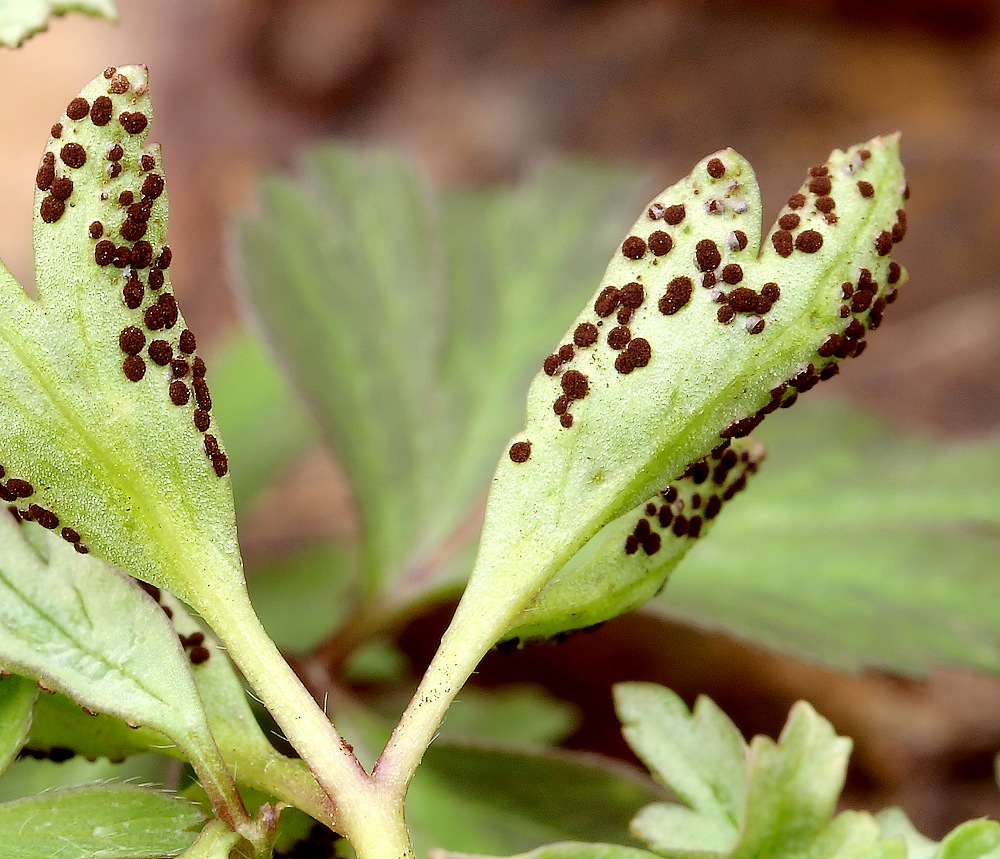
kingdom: Fungi
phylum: Basidiomycota
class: Pucciniomycetes
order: Pucciniales
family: Tranzscheliaceae
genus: Tranzschelia
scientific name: Tranzschelia anemones
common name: anemone-knæksporerust
